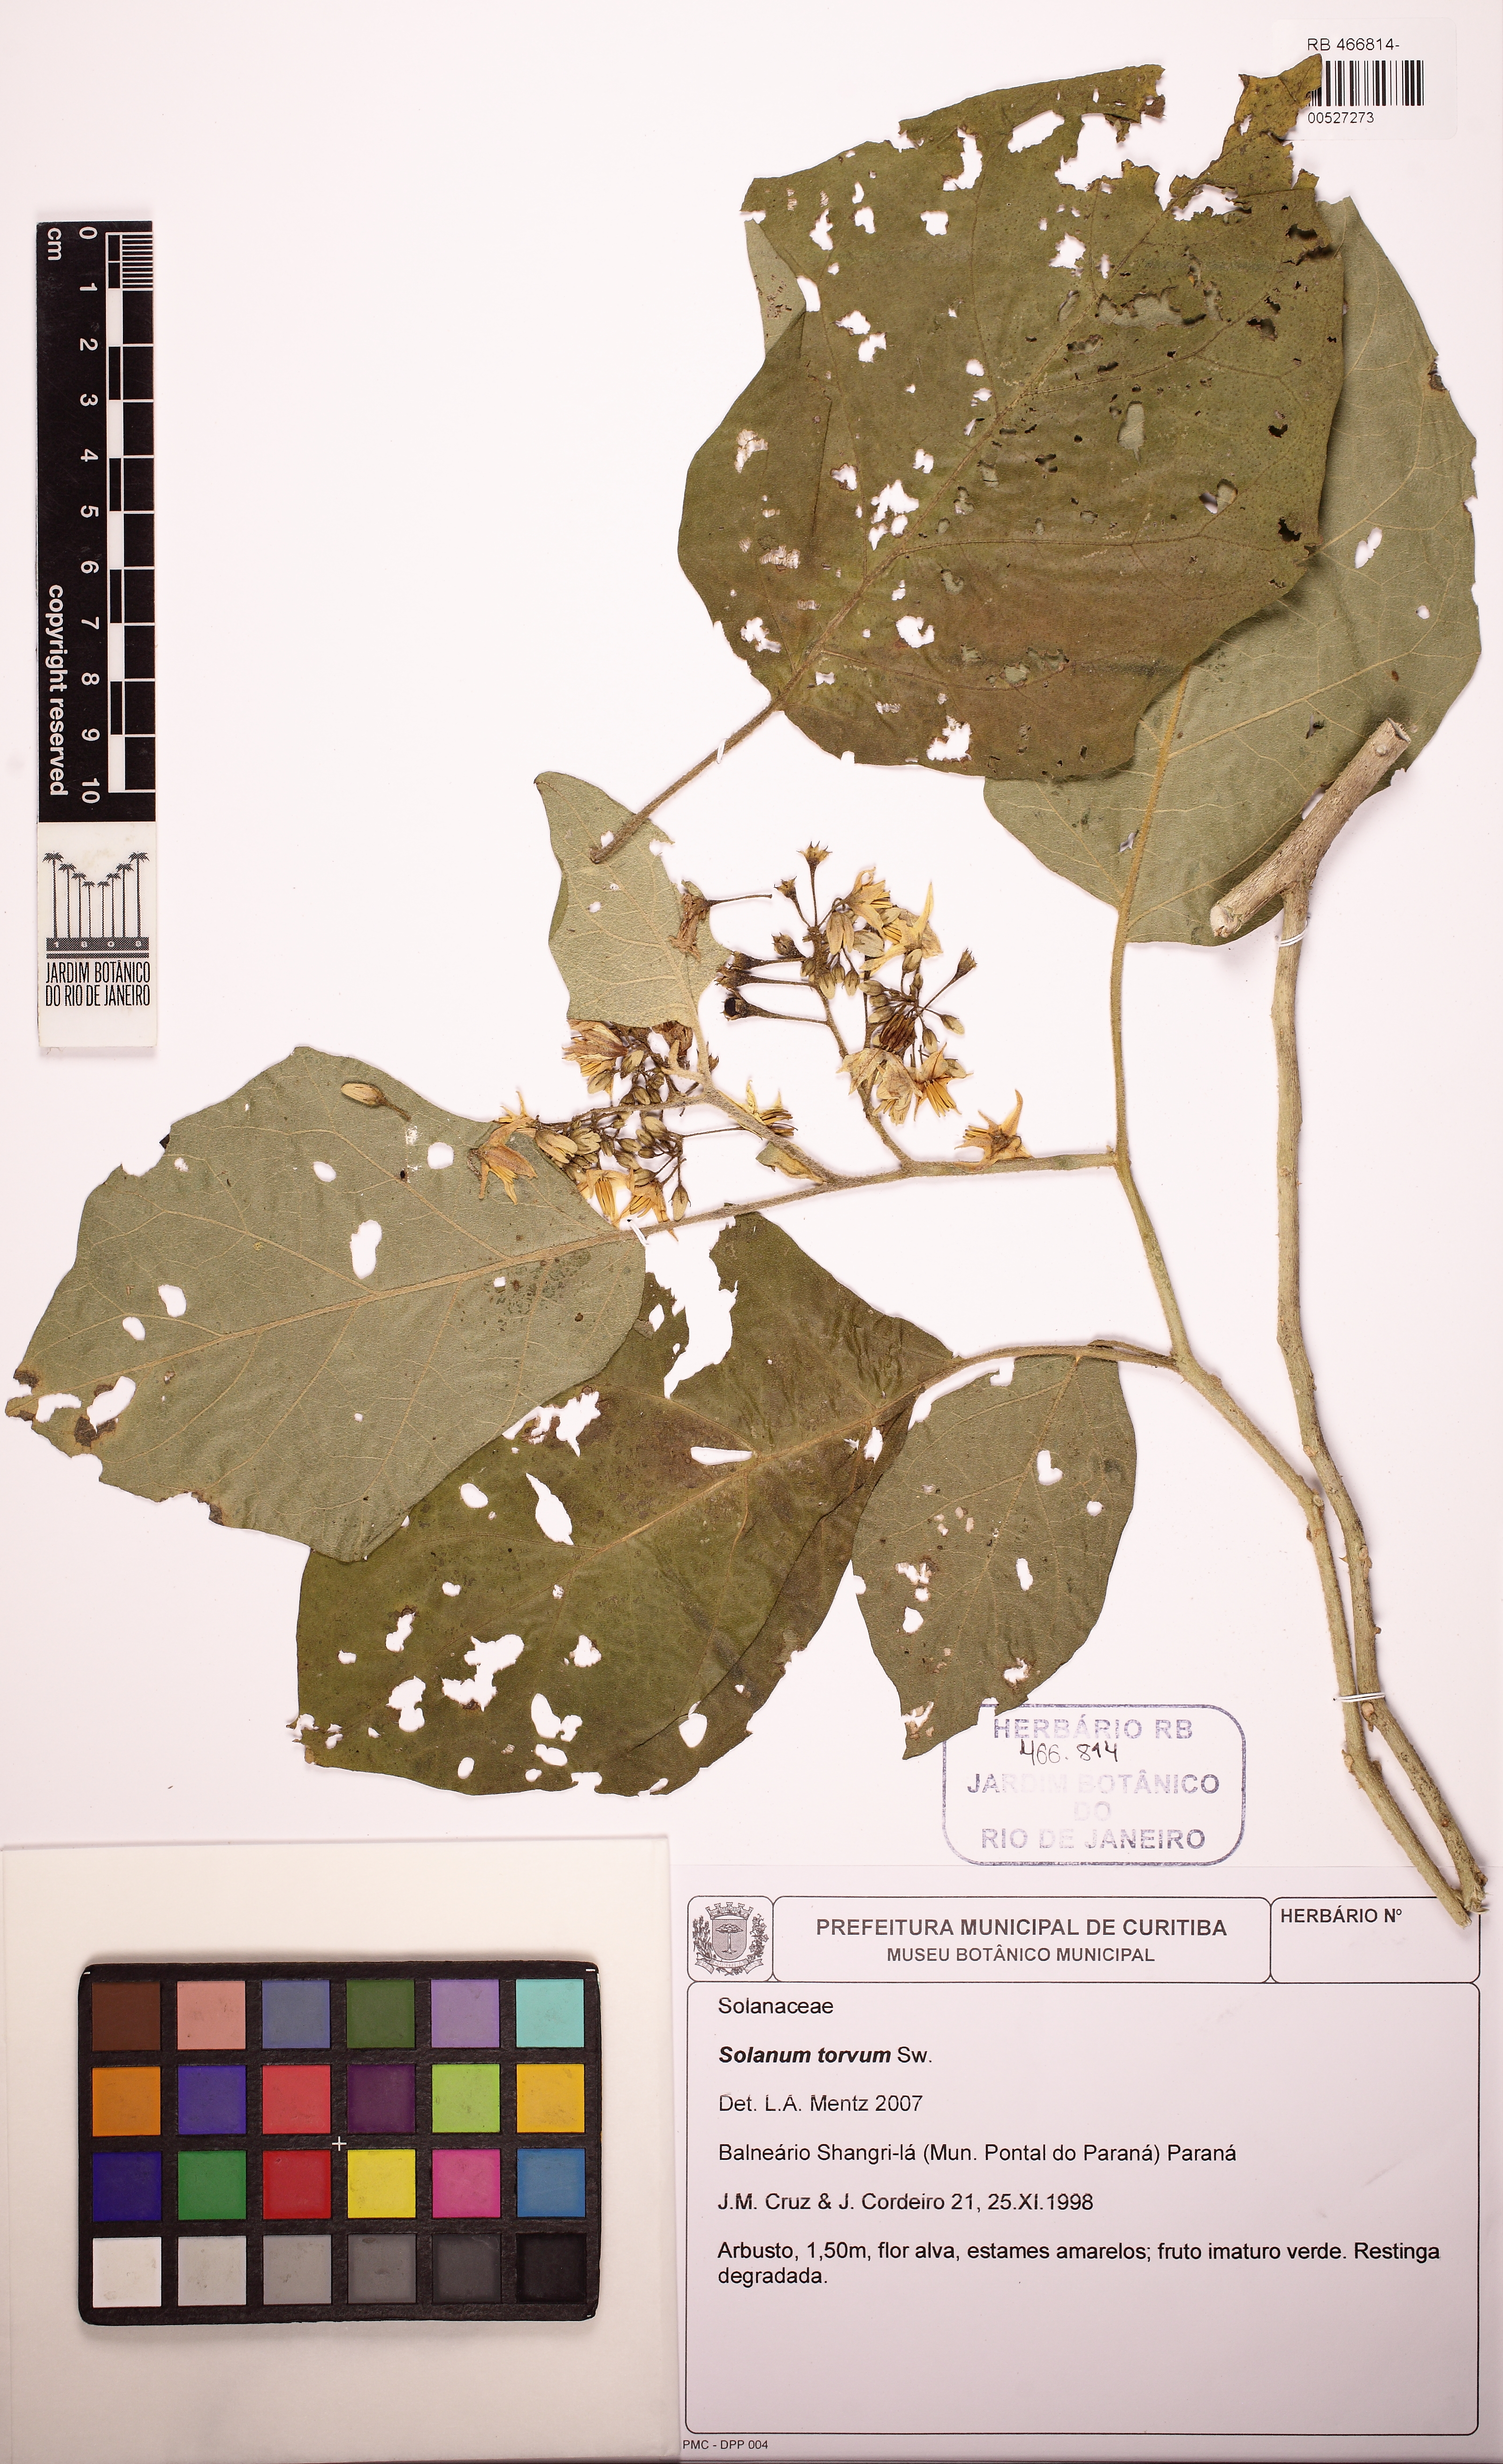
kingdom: Plantae
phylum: Tracheophyta
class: Magnoliopsida
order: Solanales
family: Solanaceae
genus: Solanum
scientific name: Solanum torvum
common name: Turkey berry
